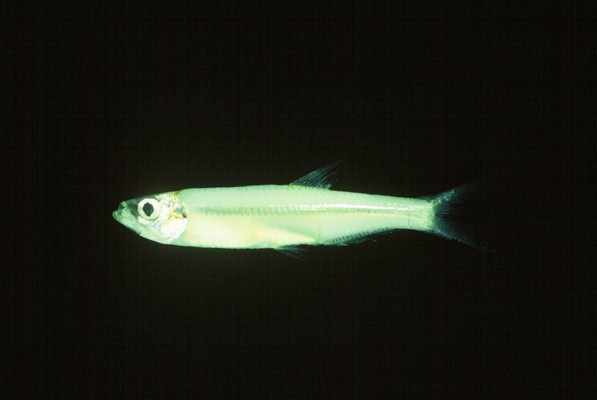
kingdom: Animalia
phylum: Chordata
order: Clupeiformes
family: Clupeidae
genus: Gilchristella
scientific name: Gilchristella aestuaria
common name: Estuarine round-herring
